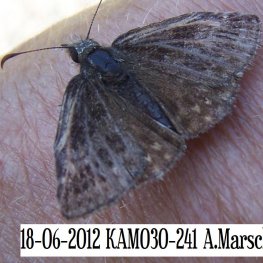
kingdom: Animalia
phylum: Arthropoda
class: Insecta
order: Lepidoptera
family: Hesperiidae
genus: Erynnis
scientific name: Erynnis icelus
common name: Dreamy Duskywing
